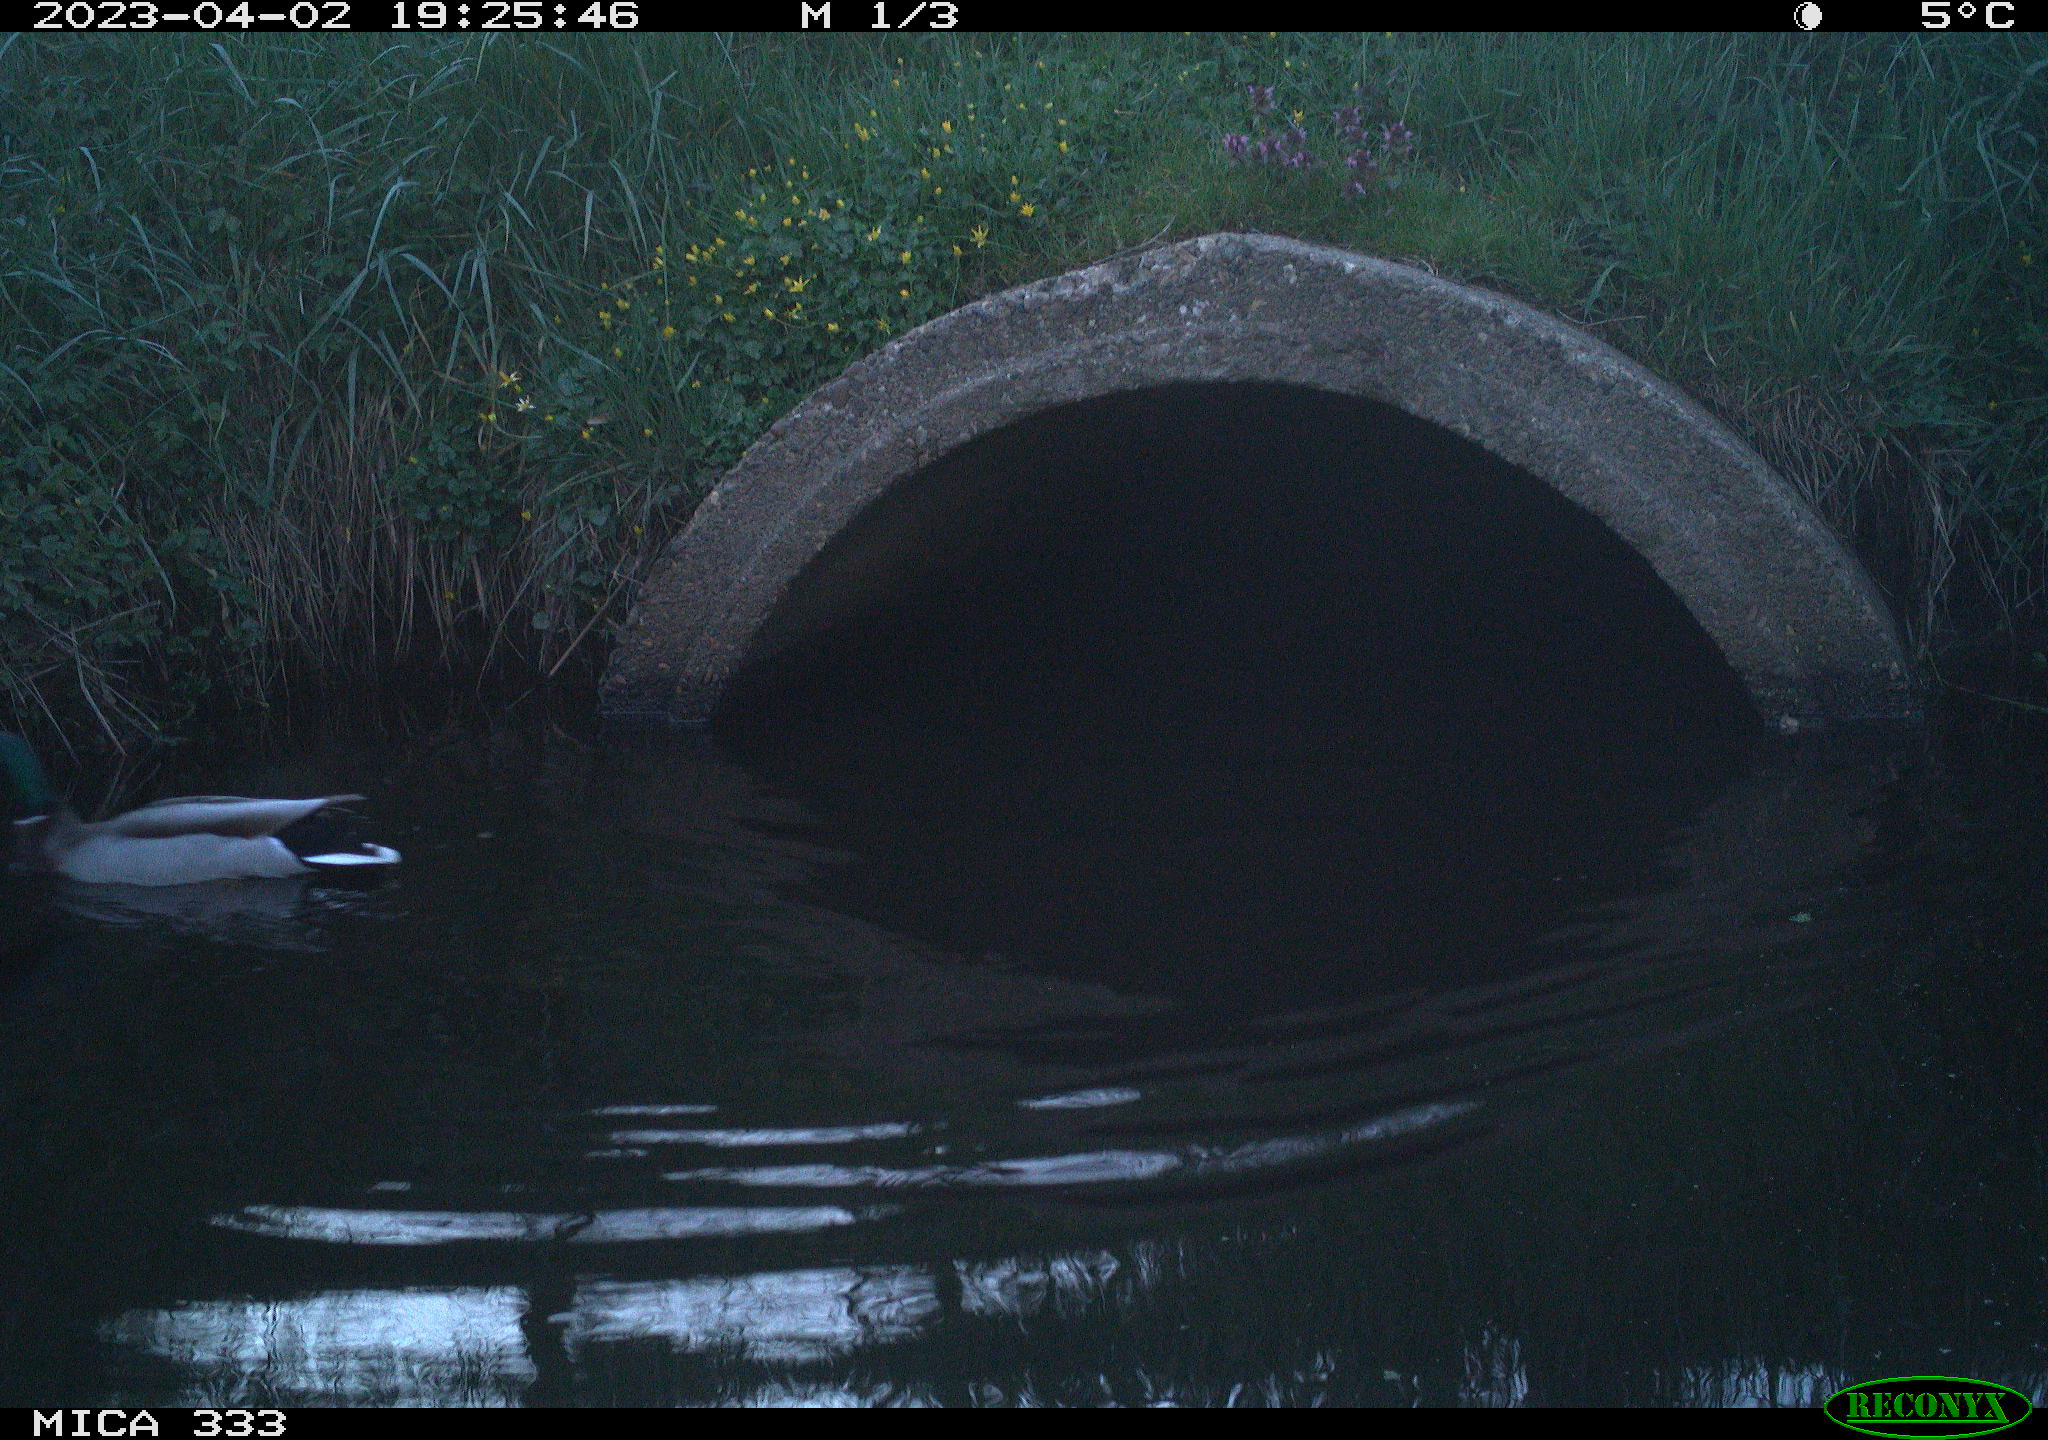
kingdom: Animalia
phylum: Chordata
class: Aves
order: Anseriformes
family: Anatidae
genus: Anas
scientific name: Anas
